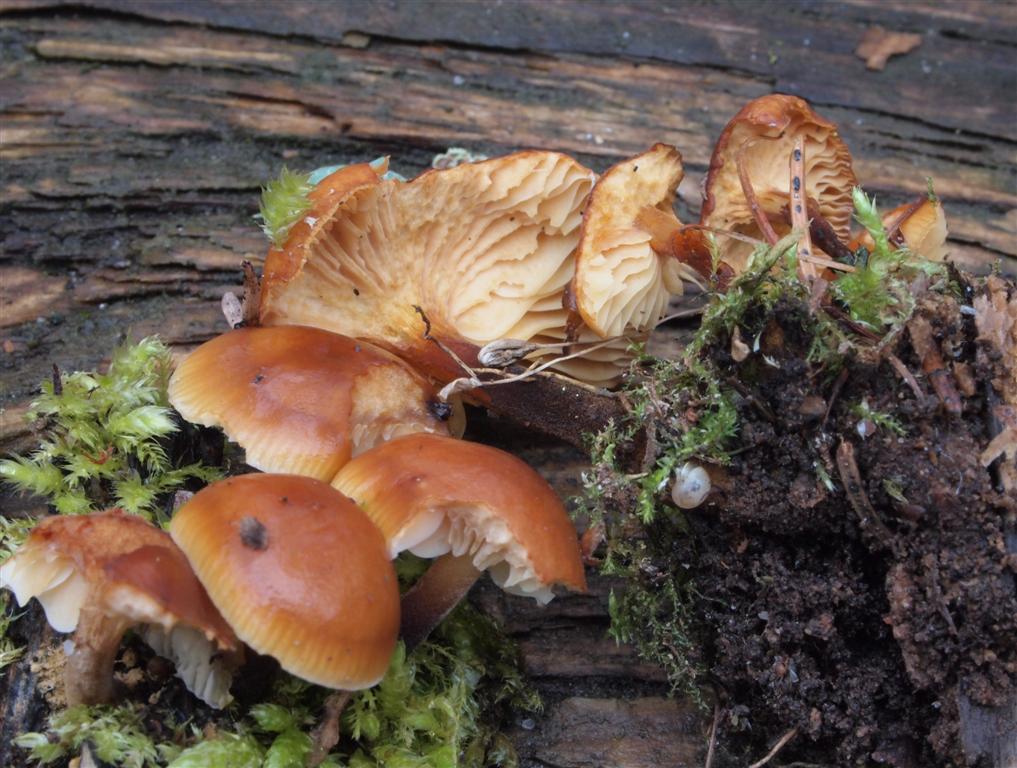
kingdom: Fungi
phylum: Basidiomycota
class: Agaricomycetes
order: Agaricales
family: Physalacriaceae
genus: Flammulina
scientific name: Flammulina velutipes
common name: gul fløjlsfod
